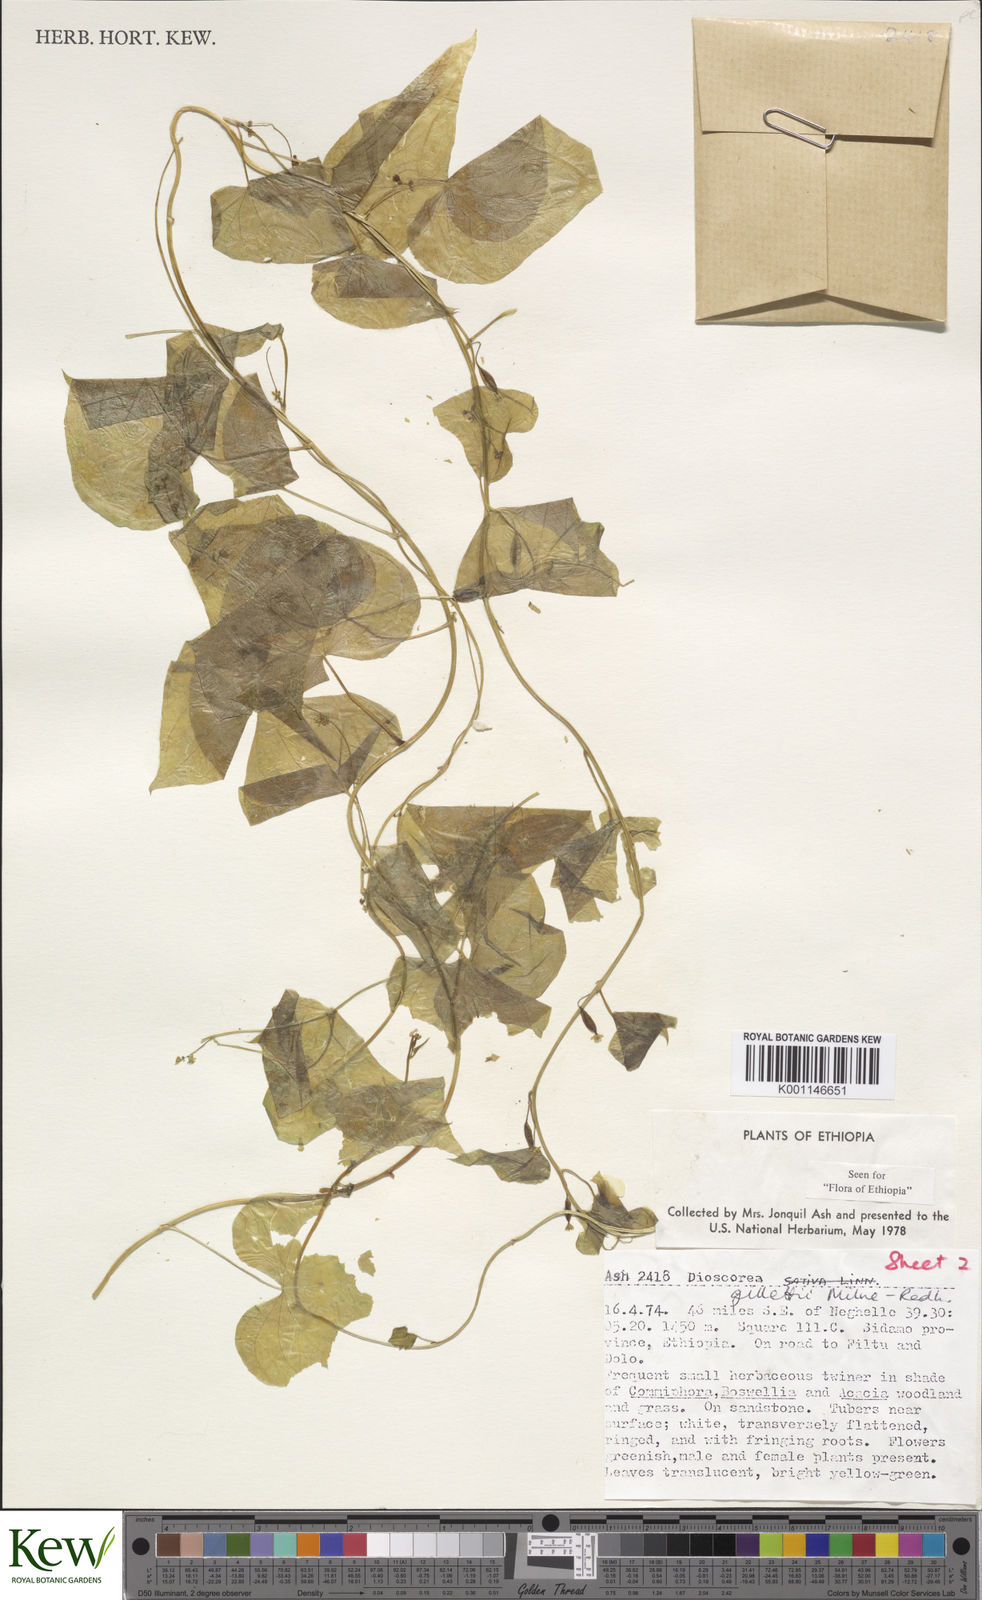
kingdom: Plantae
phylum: Tracheophyta
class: Liliopsida
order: Dioscoreales
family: Dioscoreaceae
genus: Dioscorea
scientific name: Dioscorea gillettii
